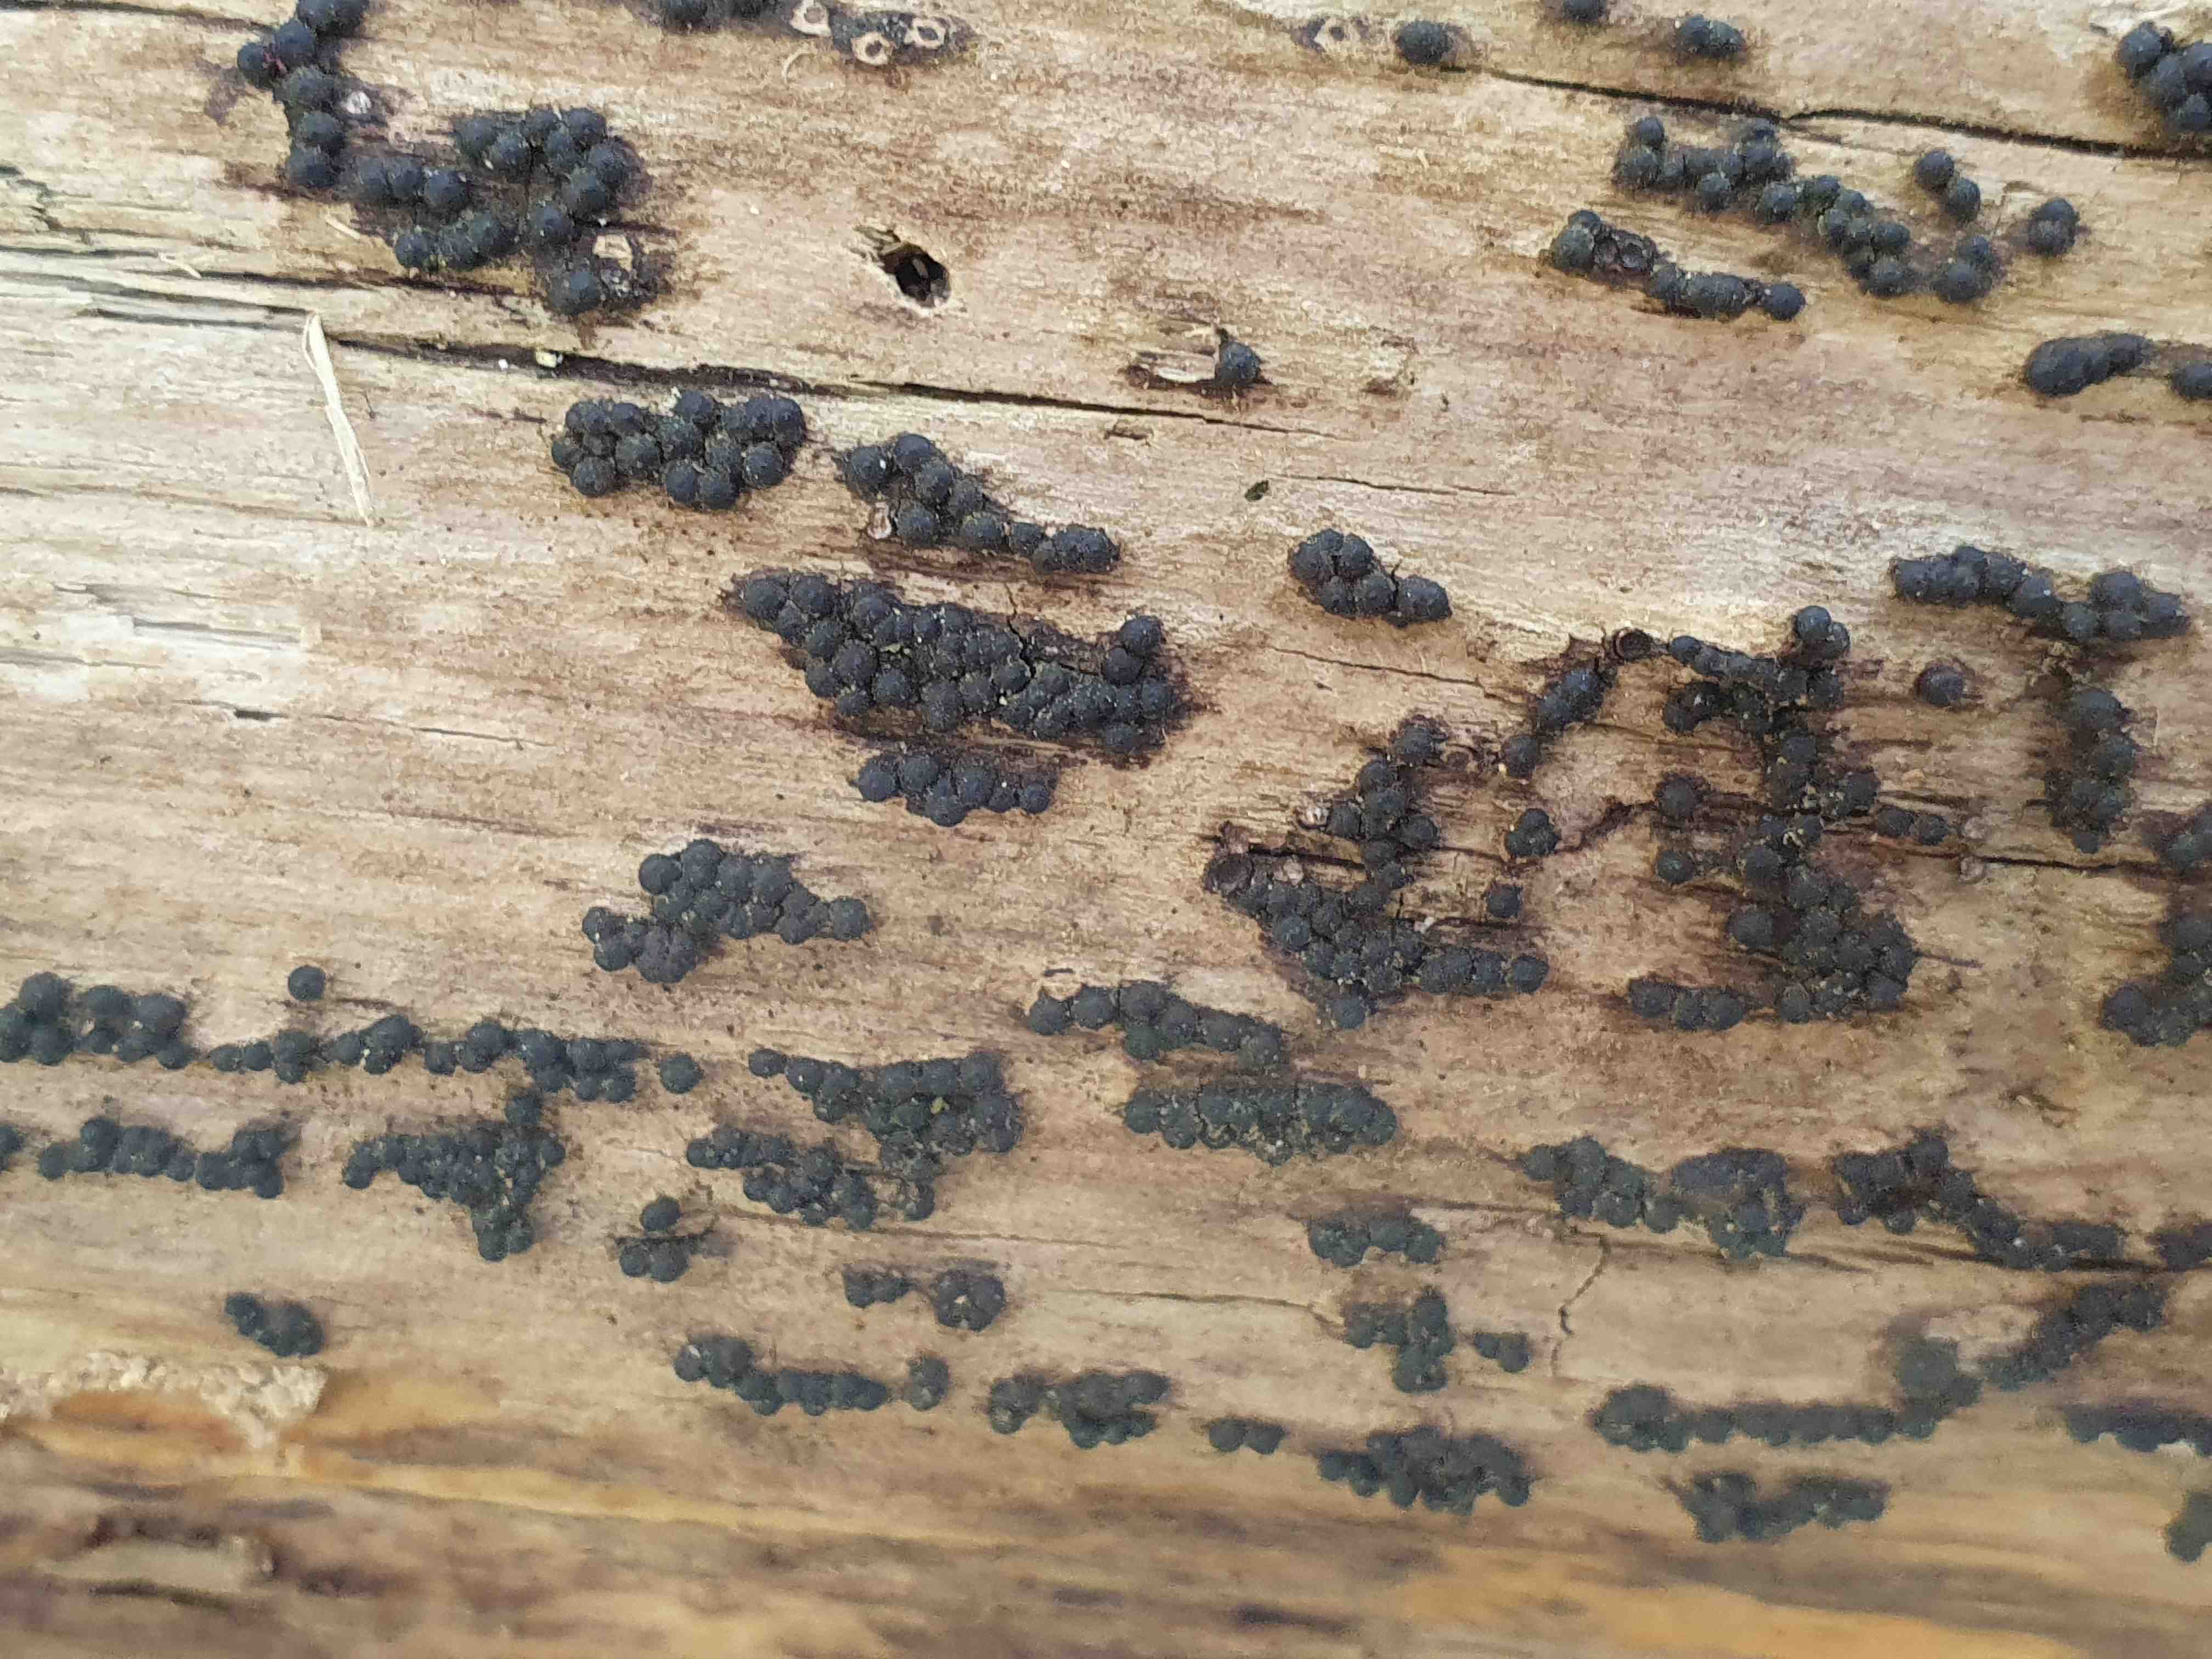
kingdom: Fungi
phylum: Ascomycota
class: Sordariomycetes
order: Xylariales
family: Xylariaceae
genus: Rosellinia
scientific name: Rosellinia
